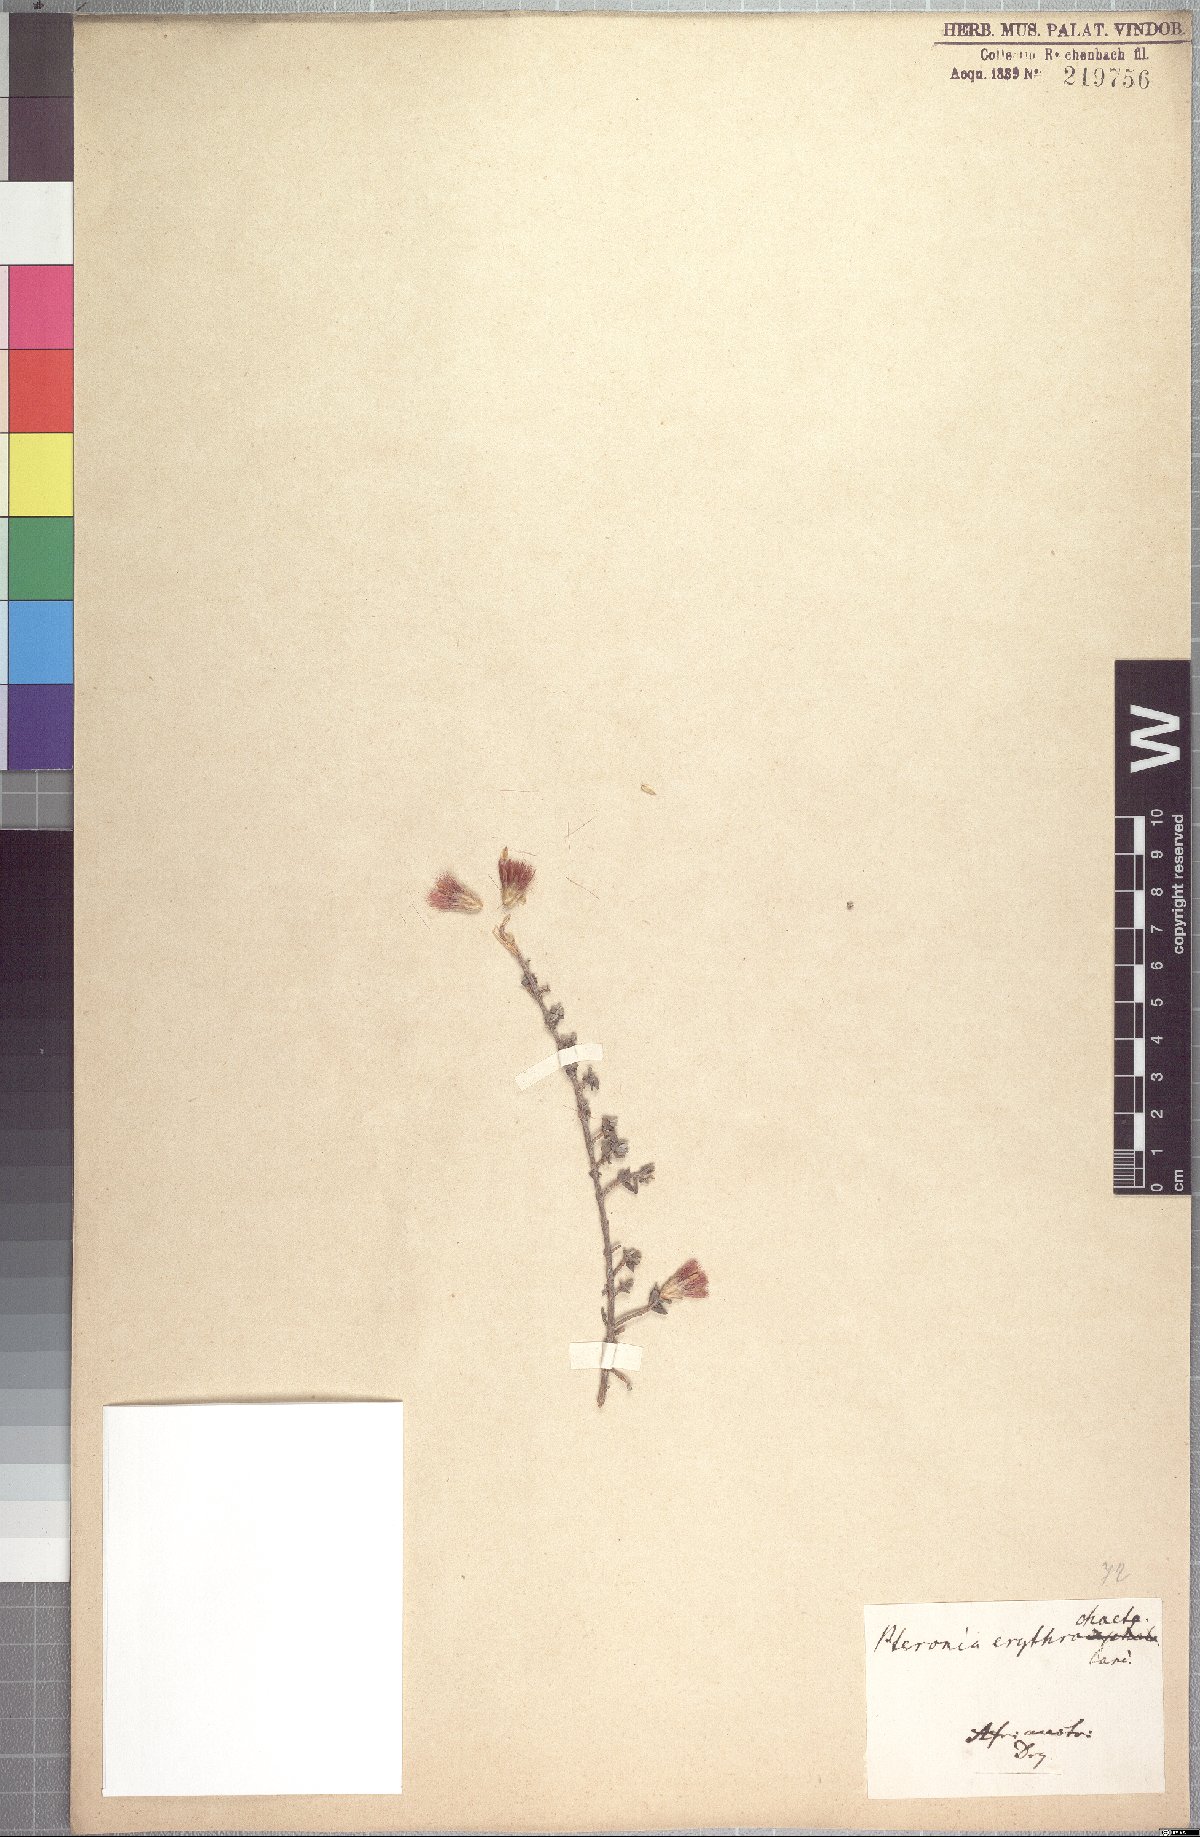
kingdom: Plantae
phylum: Tracheophyta
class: Magnoliopsida
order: Asterales
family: Asteraceae
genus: Pteronia
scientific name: Pteronia erythrochaeta
